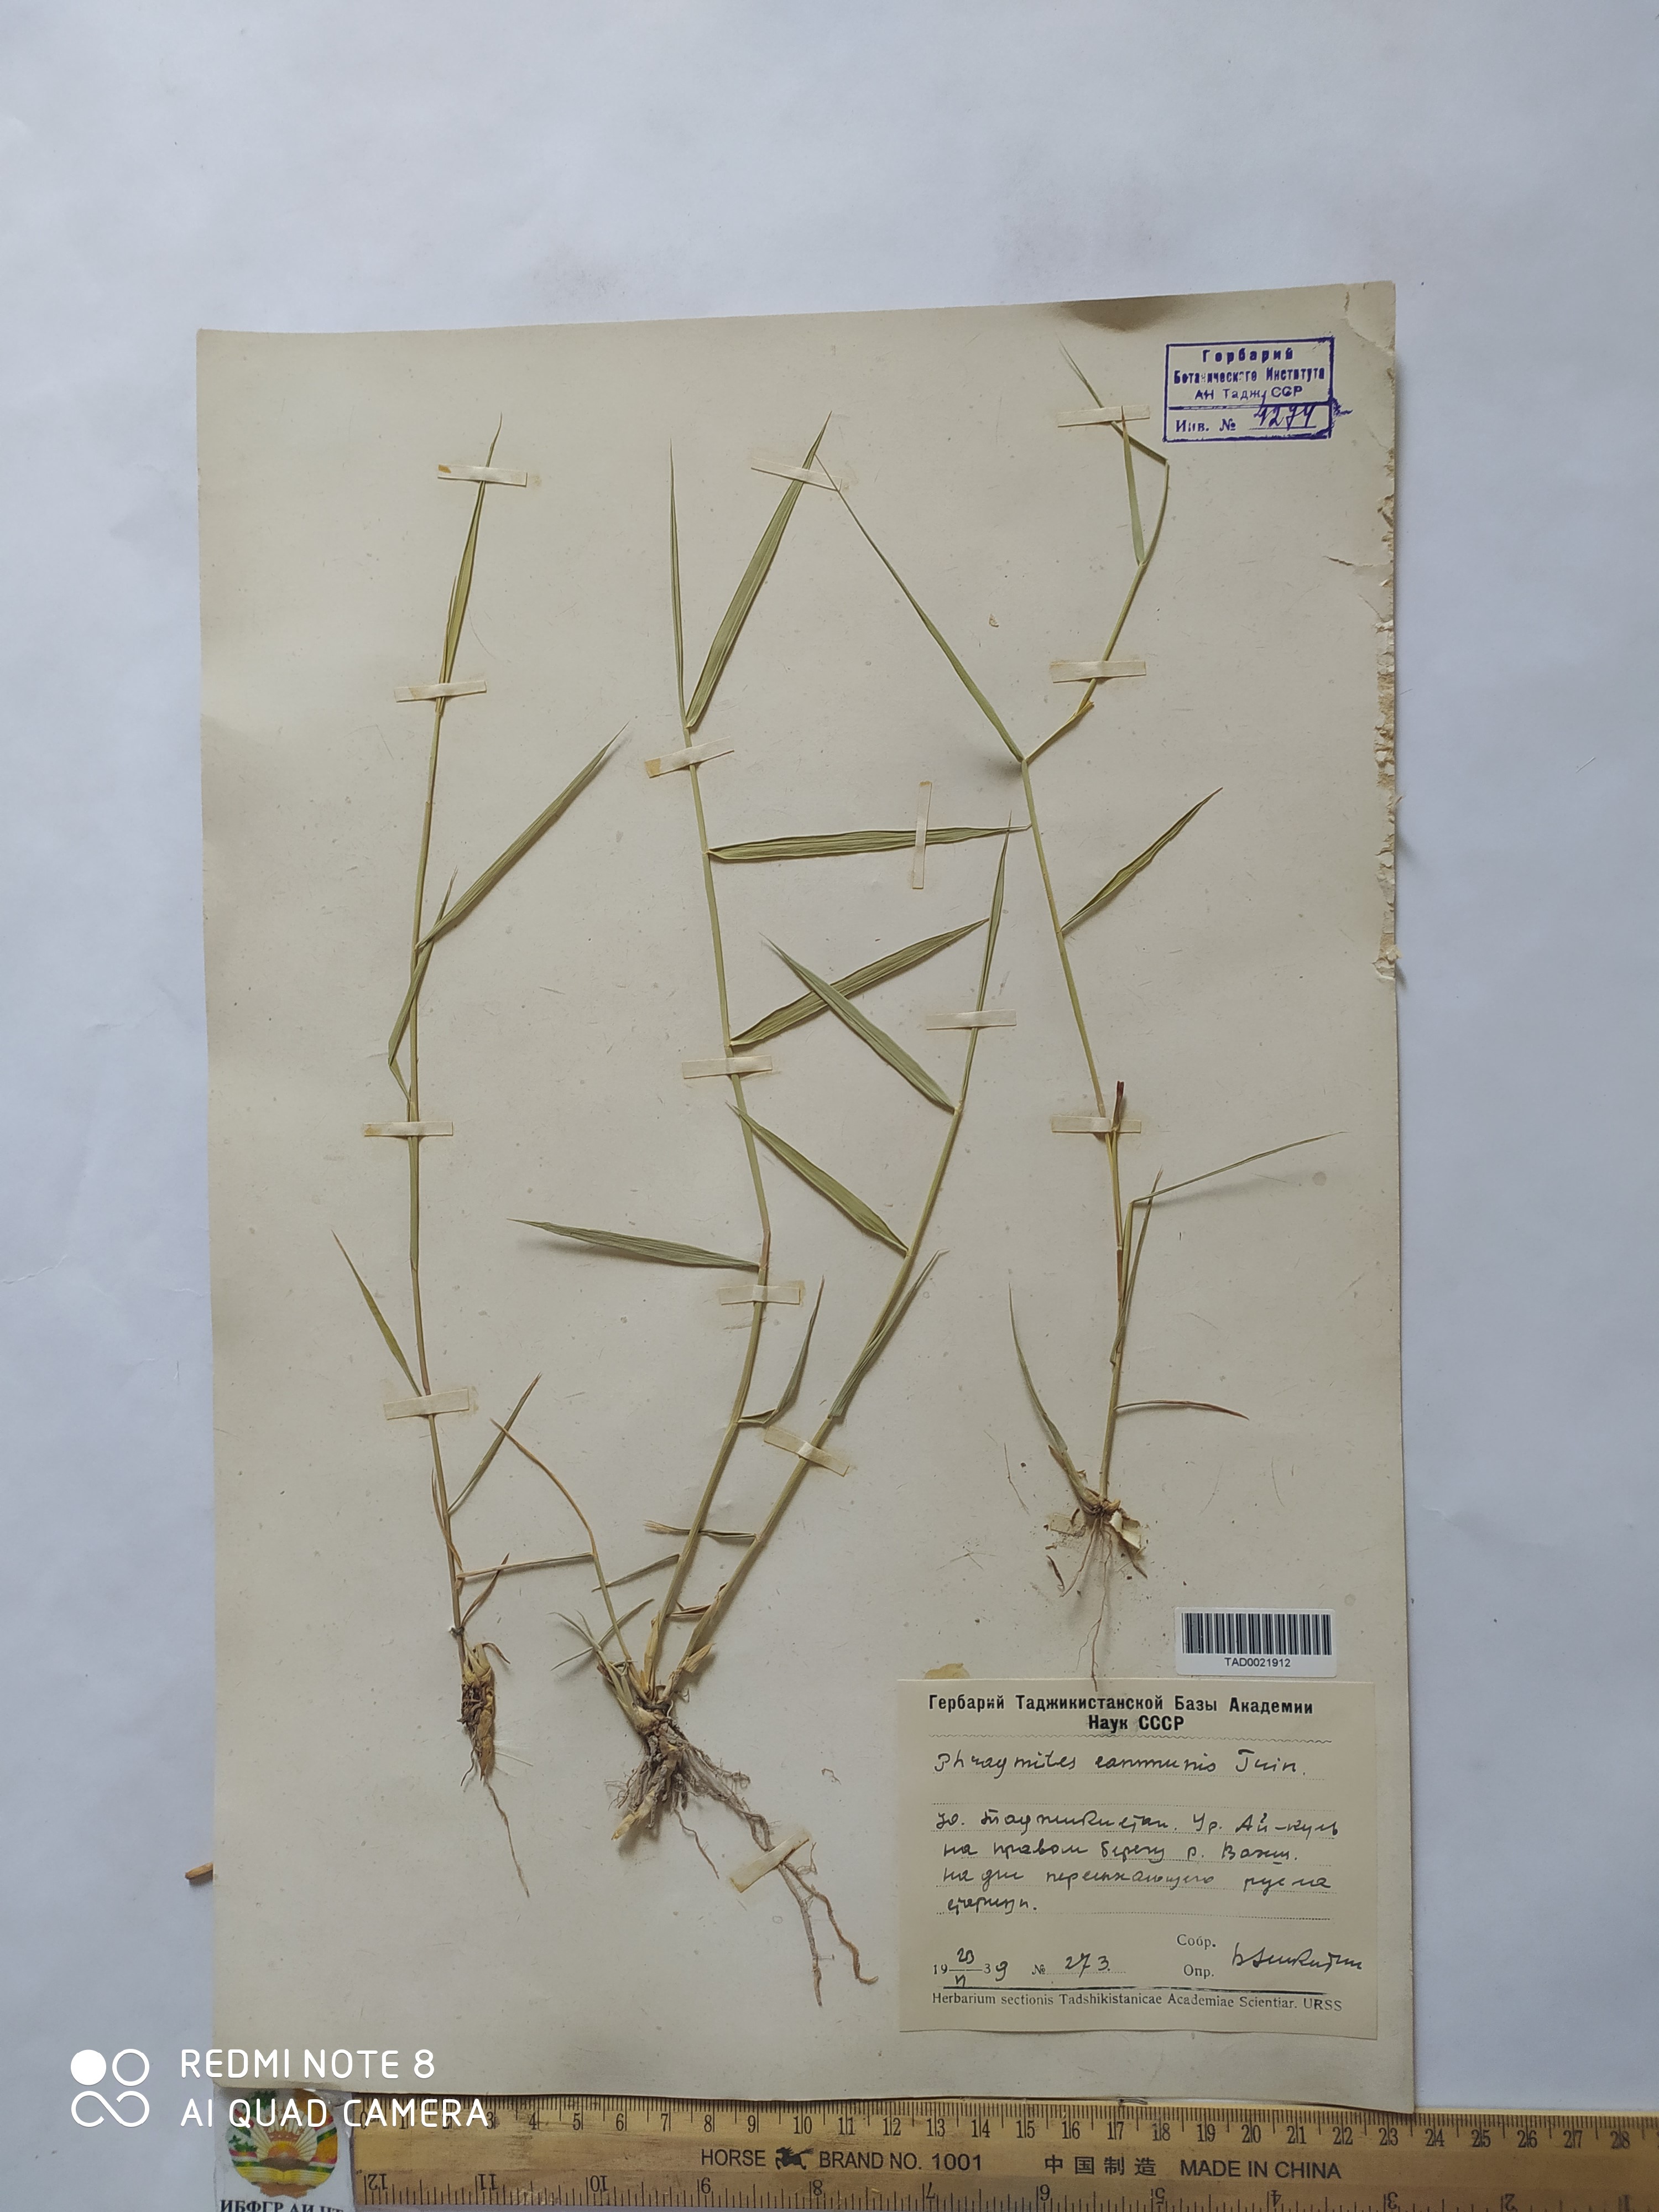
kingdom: Plantae
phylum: Tracheophyta
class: Liliopsida
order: Poales
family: Poaceae
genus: Phragmites
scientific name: Phragmites australis
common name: Common reed
